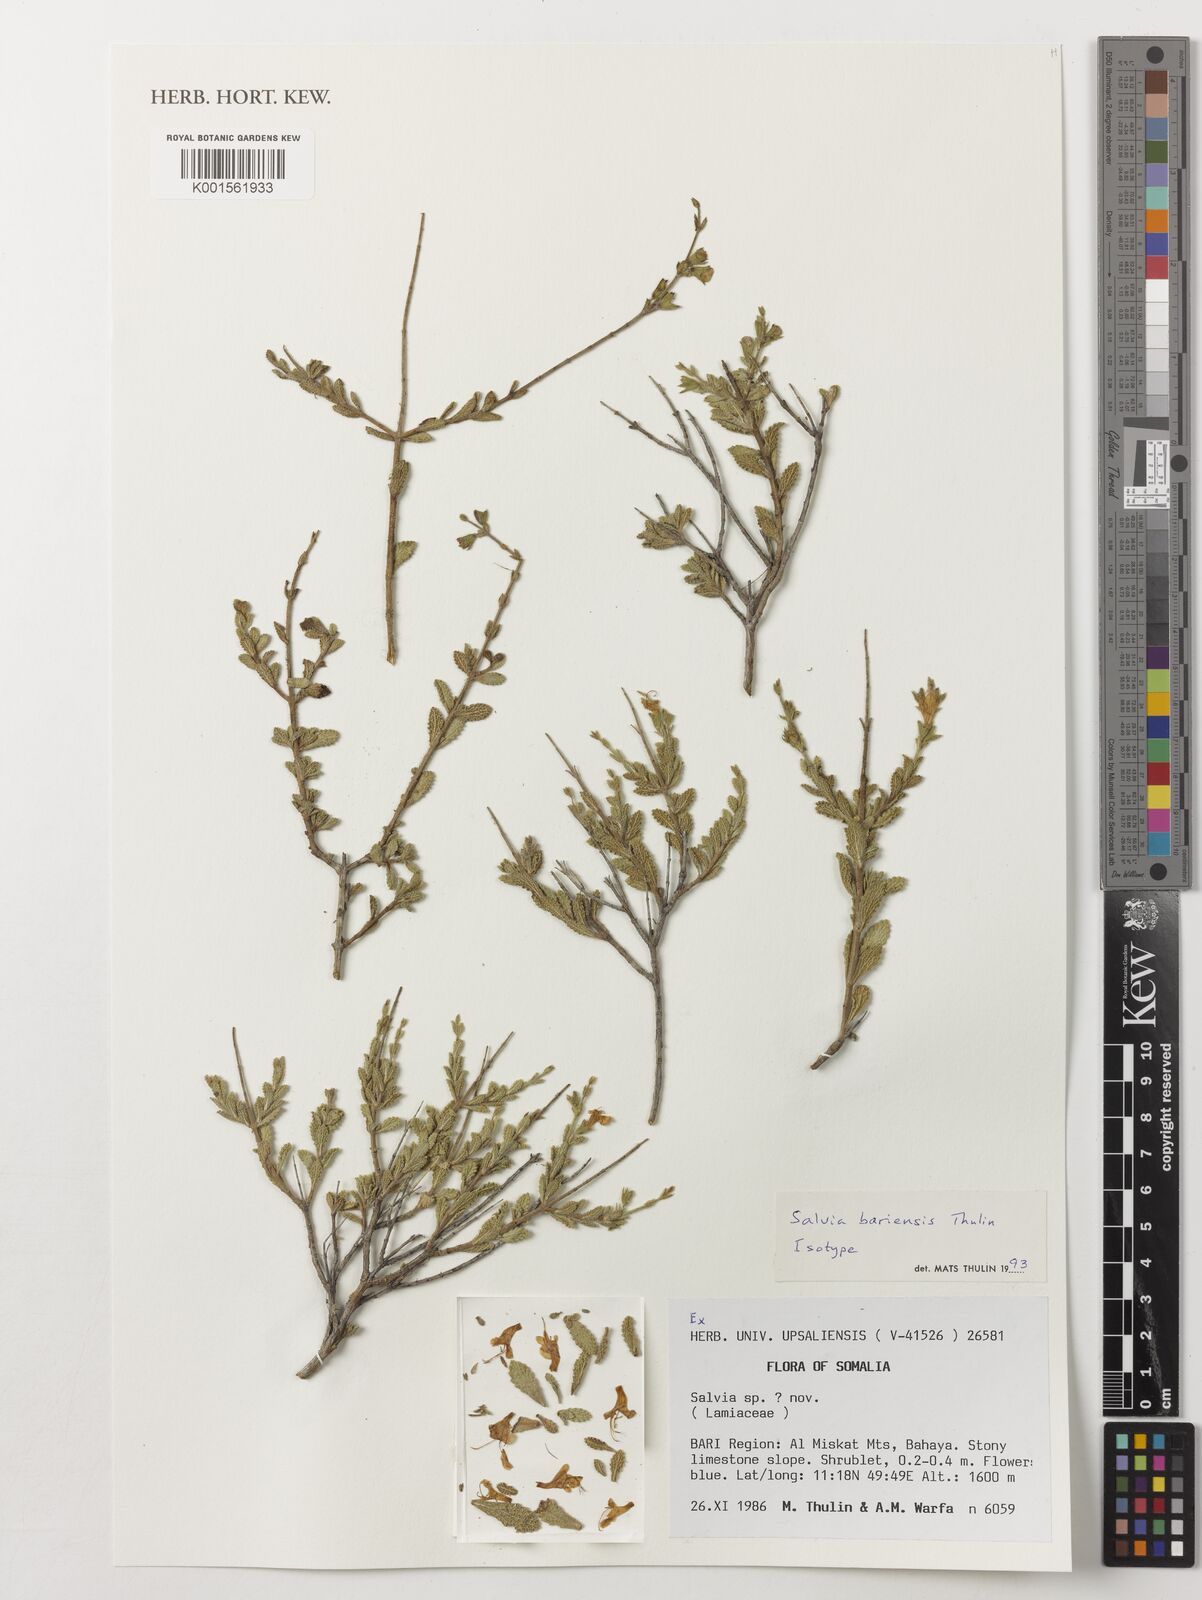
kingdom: Plantae
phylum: Tracheophyta
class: Magnoliopsida
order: Lamiales
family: Lamiaceae
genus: Salvia
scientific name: Salvia bariensis
